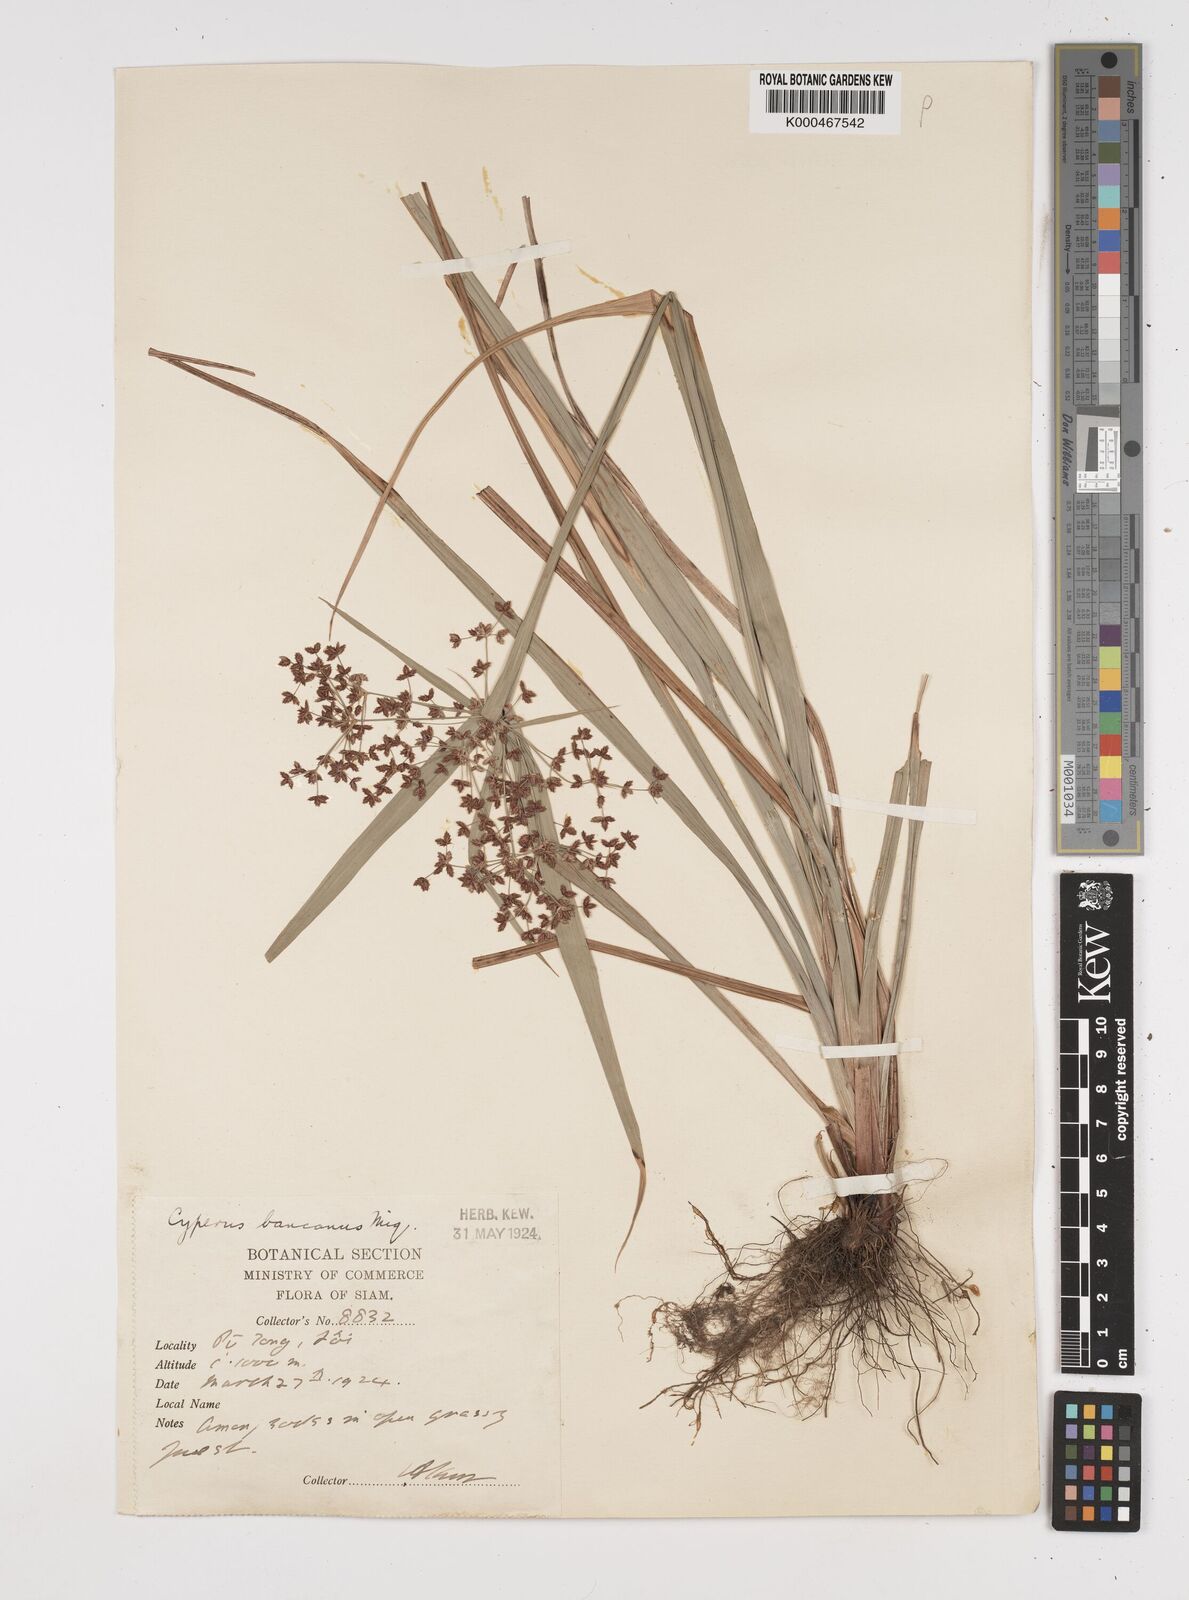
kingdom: Plantae
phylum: Tracheophyta
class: Liliopsida
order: Poales
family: Cyperaceae
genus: Cyperus
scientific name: Cyperus trialatus
